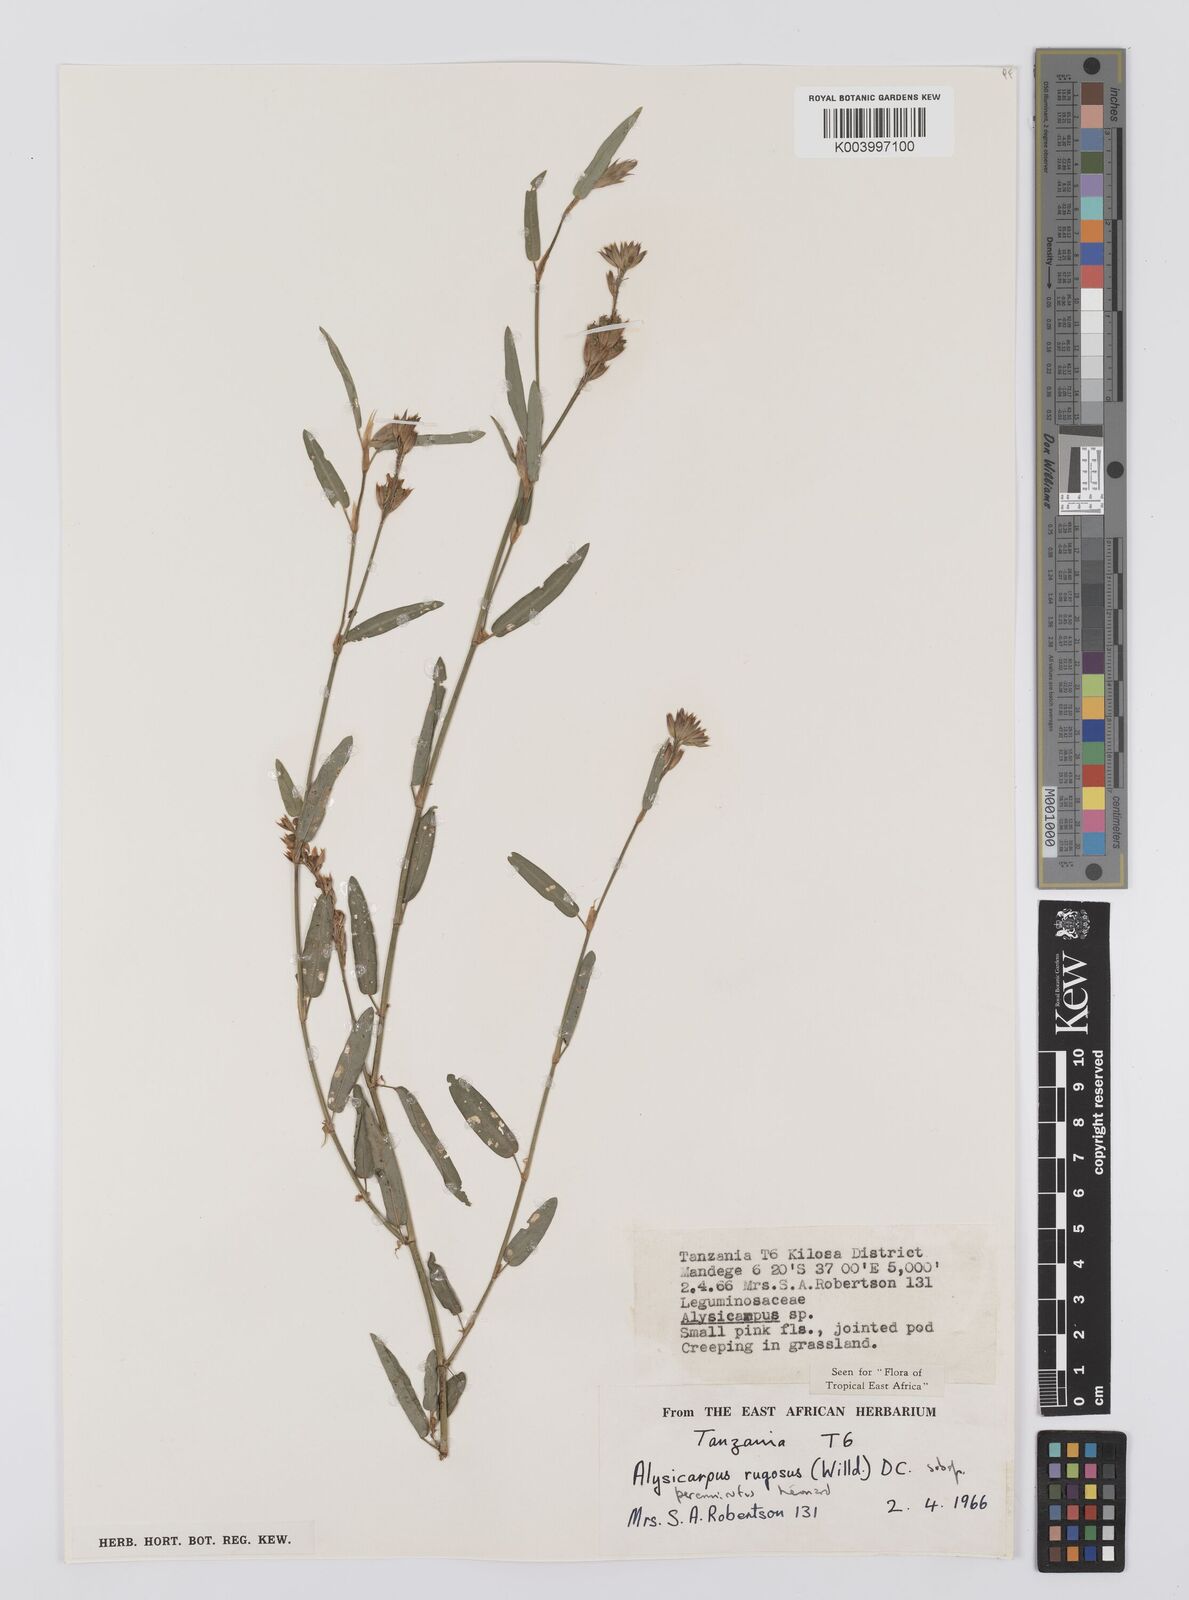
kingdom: Plantae
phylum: Tracheophyta
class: Magnoliopsida
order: Fabales
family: Fabaceae
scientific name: Fabaceae
